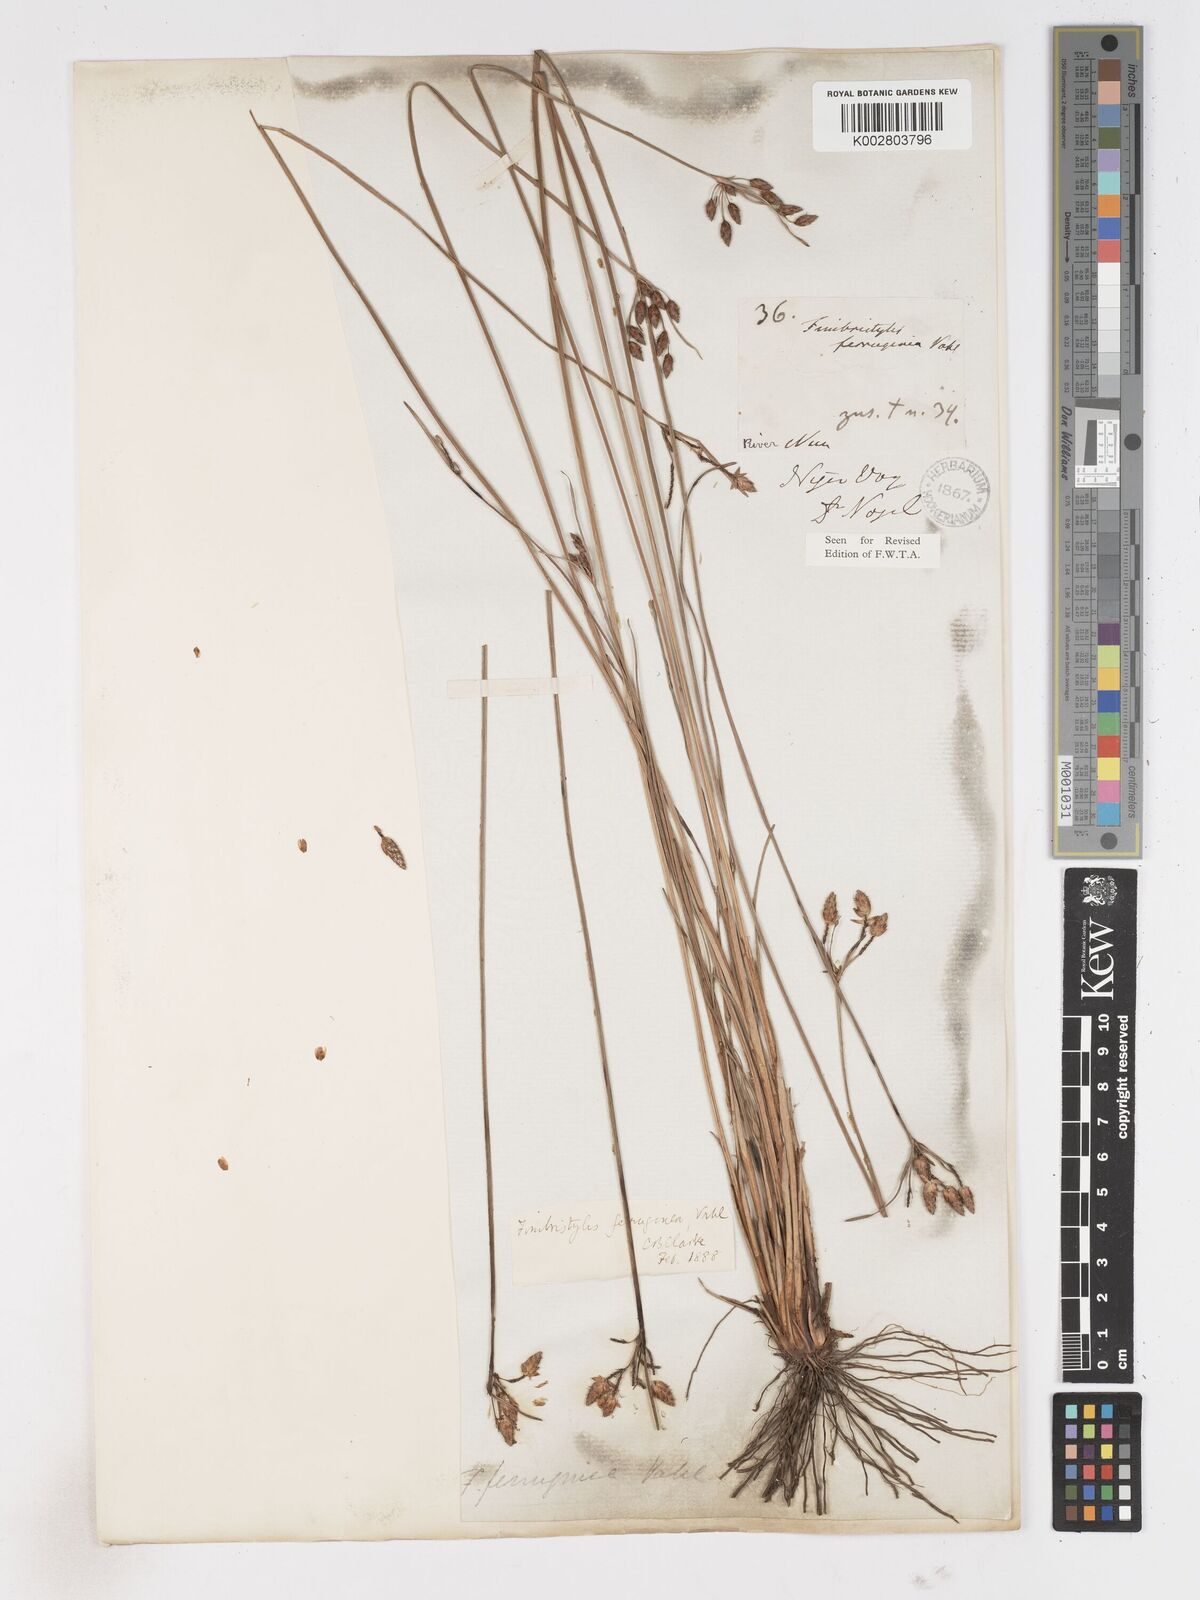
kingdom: Plantae
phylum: Tracheophyta
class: Liliopsida
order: Poales
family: Cyperaceae
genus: Fimbristylis
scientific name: Fimbristylis ferruginea
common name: West indian fimbry
